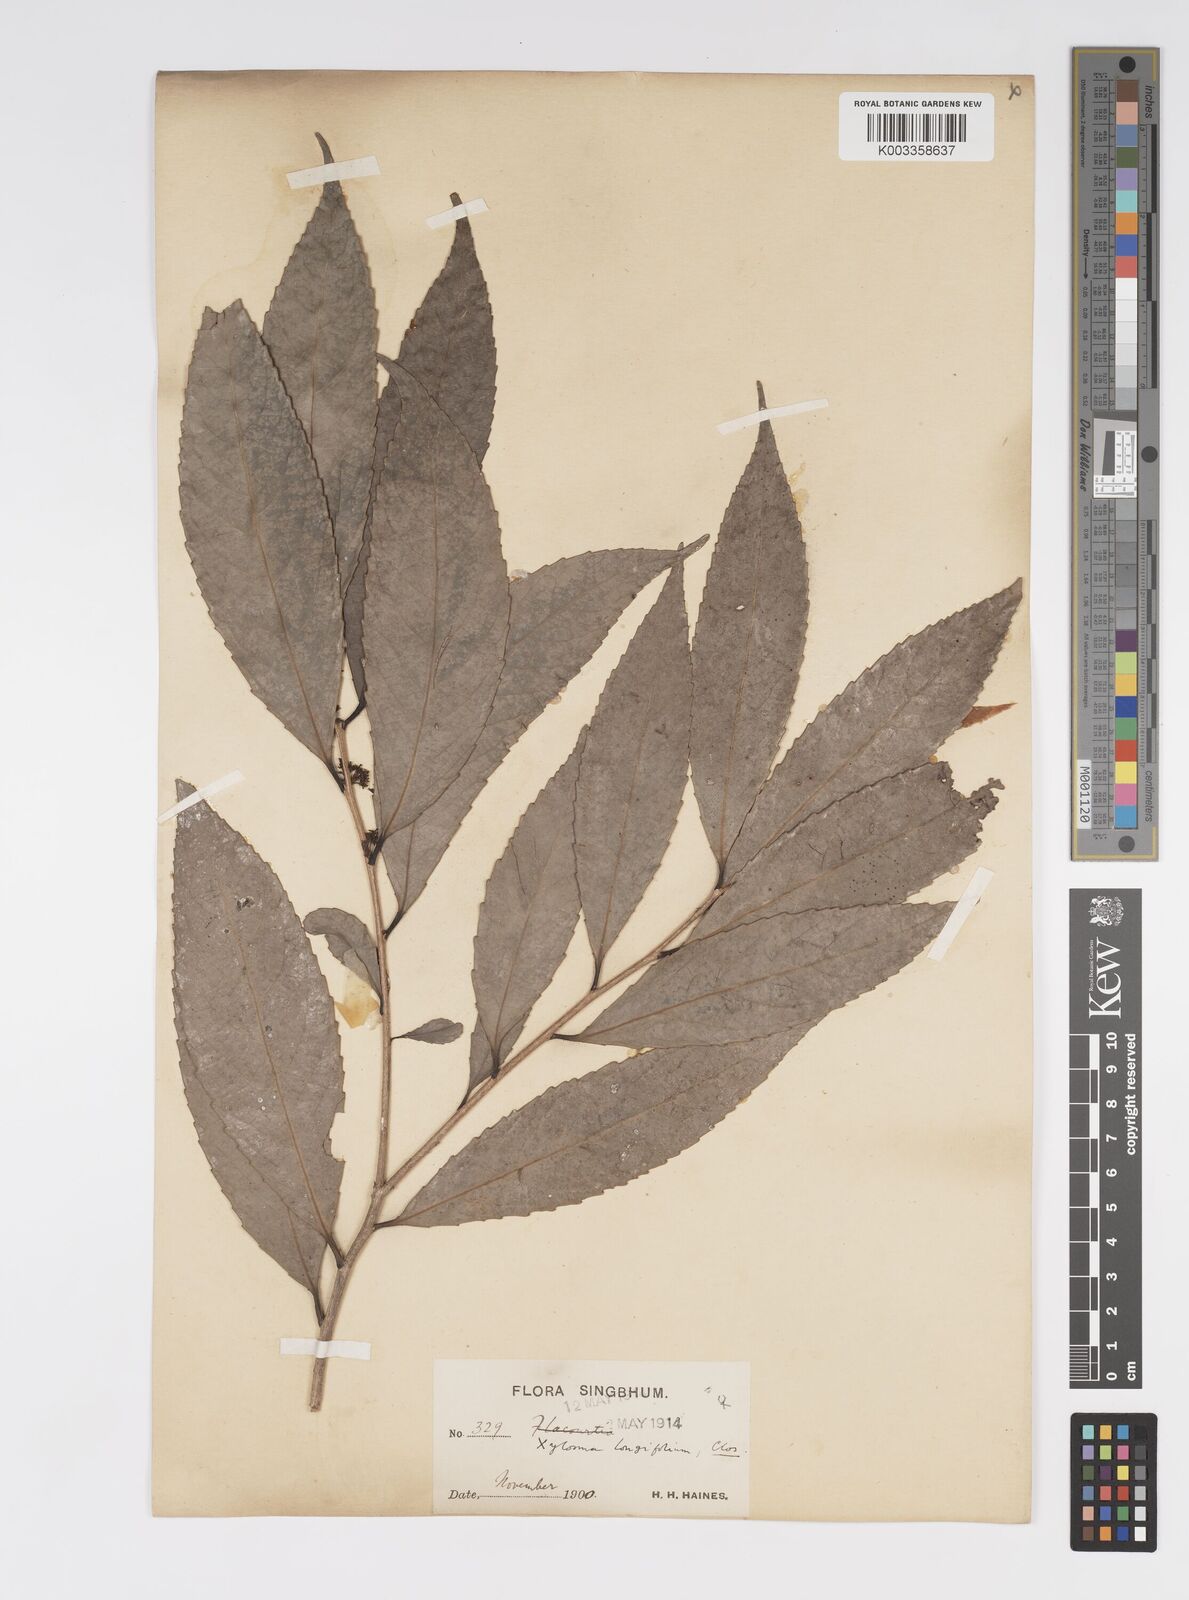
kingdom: Plantae
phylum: Tracheophyta
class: Magnoliopsida
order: Malpighiales
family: Salicaceae
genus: Xylosma
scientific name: Xylosma longifolia
